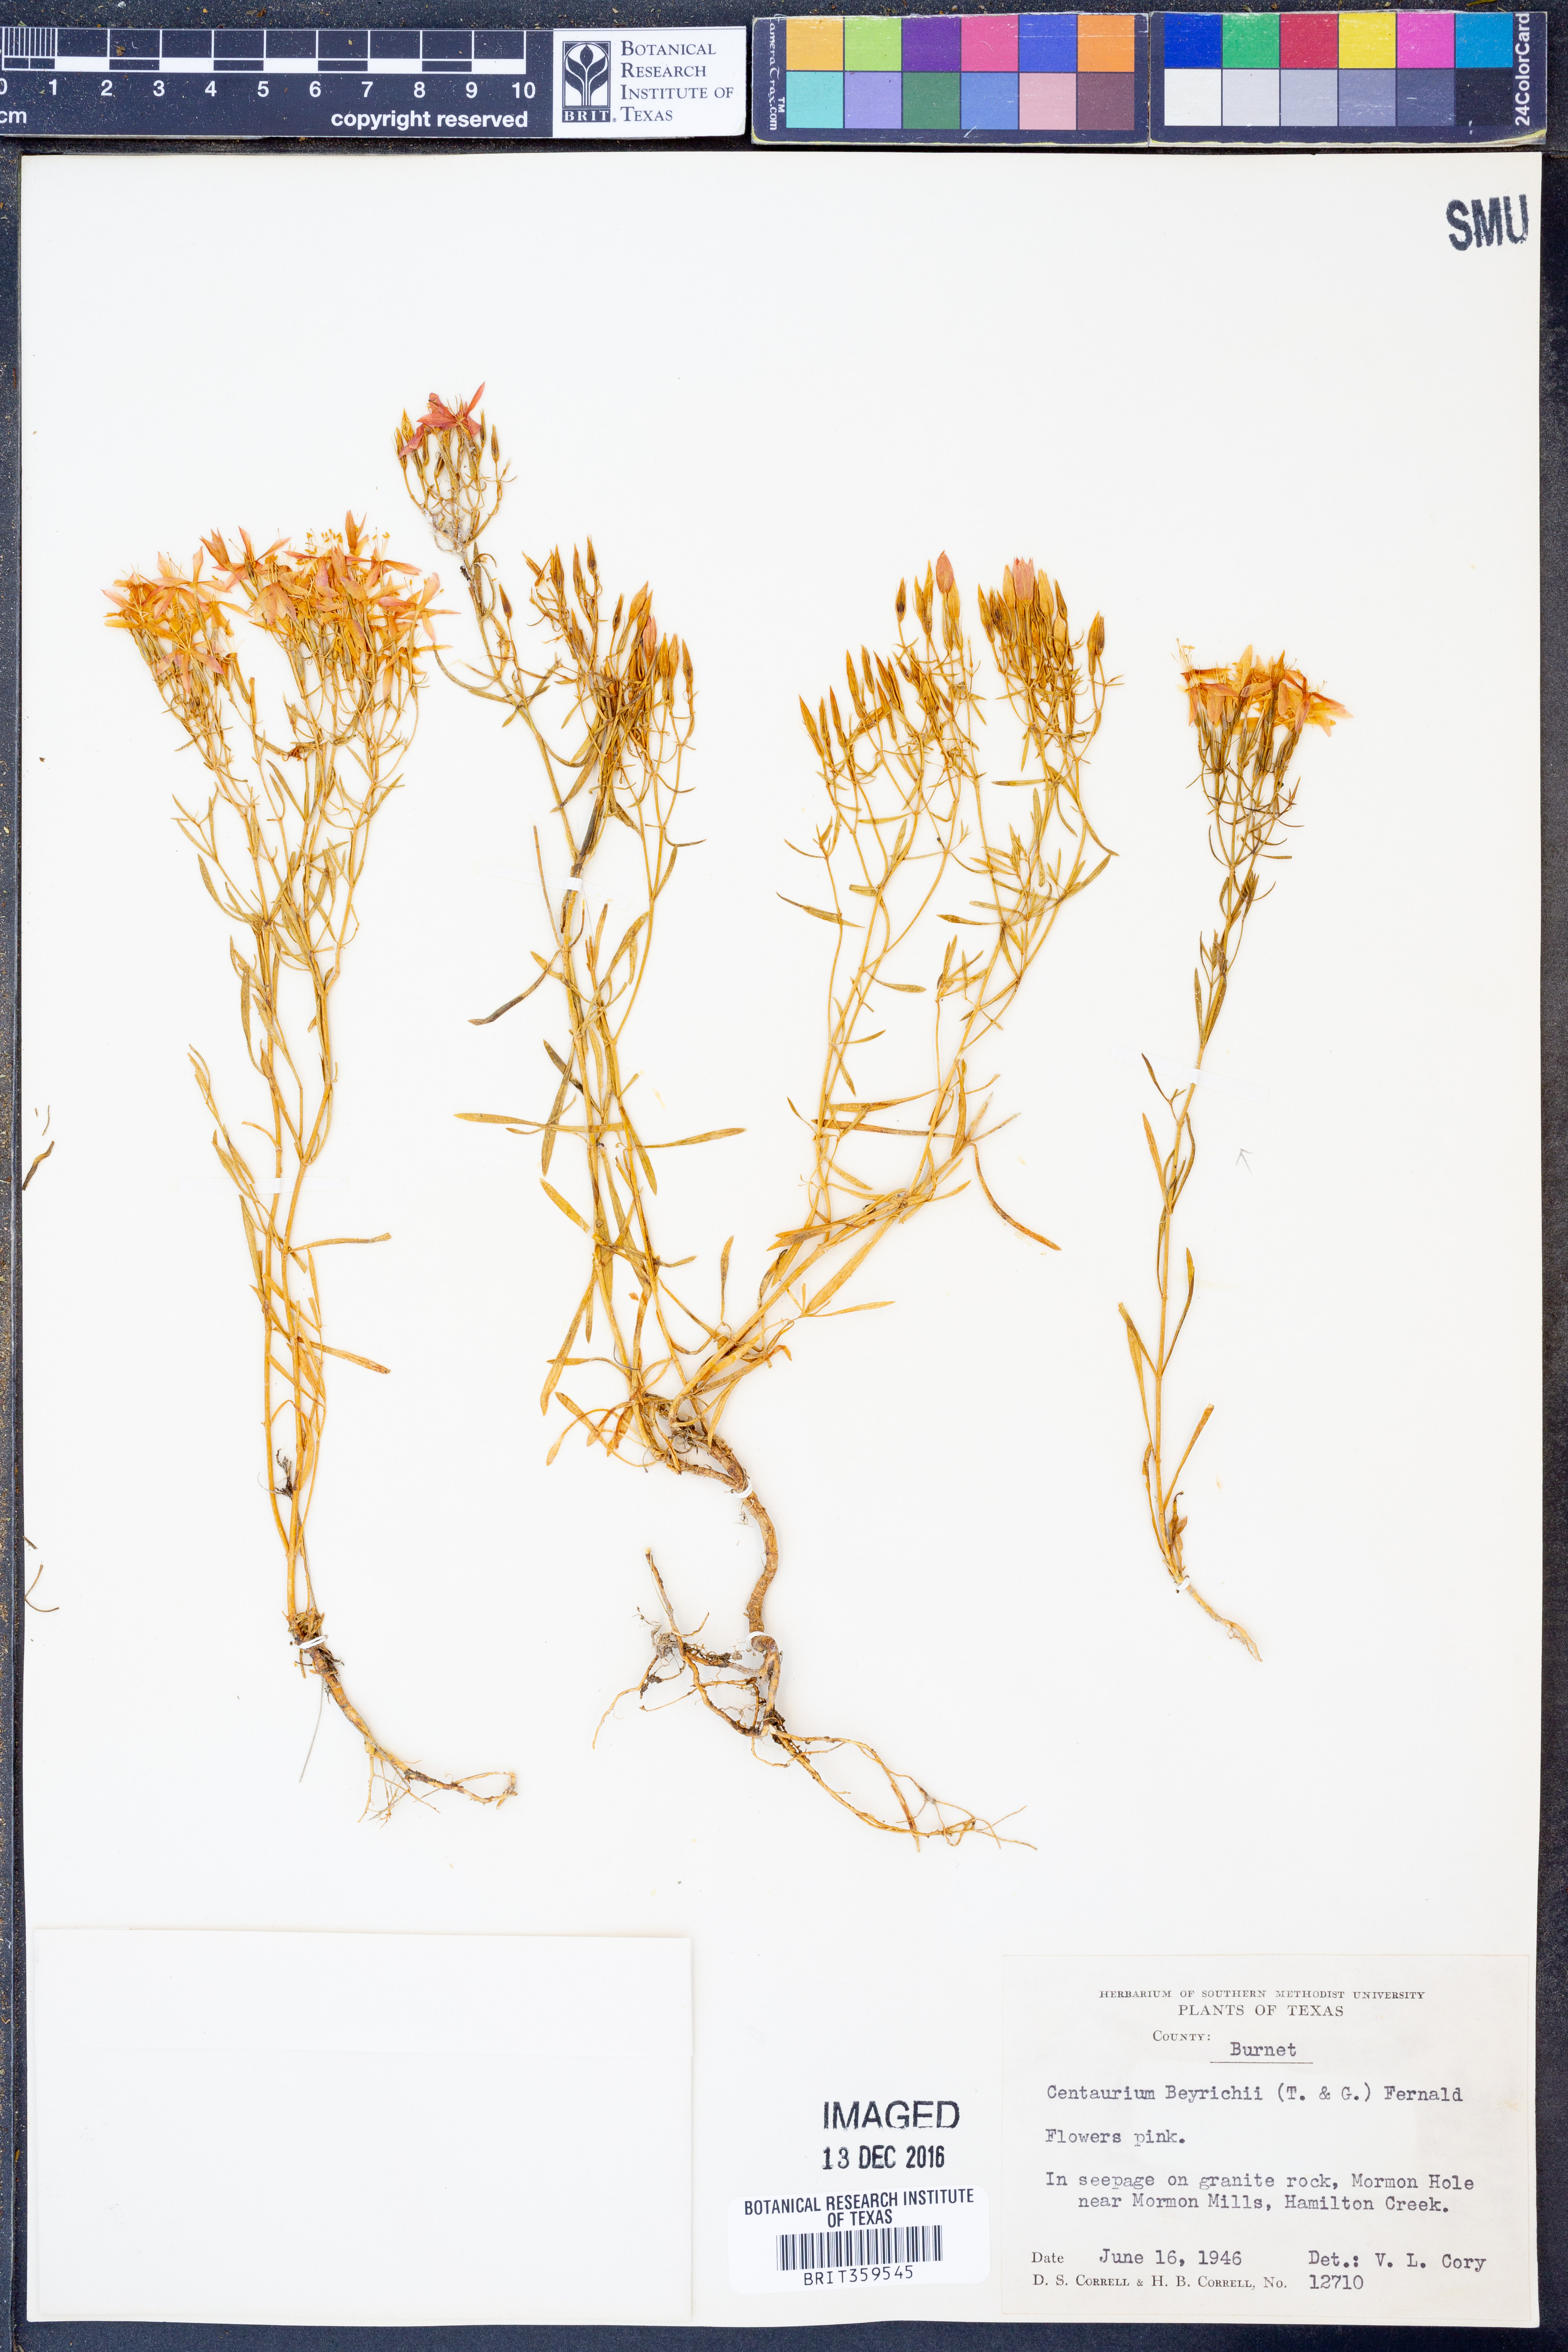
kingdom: Plantae
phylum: Tracheophyta
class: Magnoliopsida
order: Gentianales
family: Gentianaceae
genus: Zeltnera
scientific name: Zeltnera beyrichii
